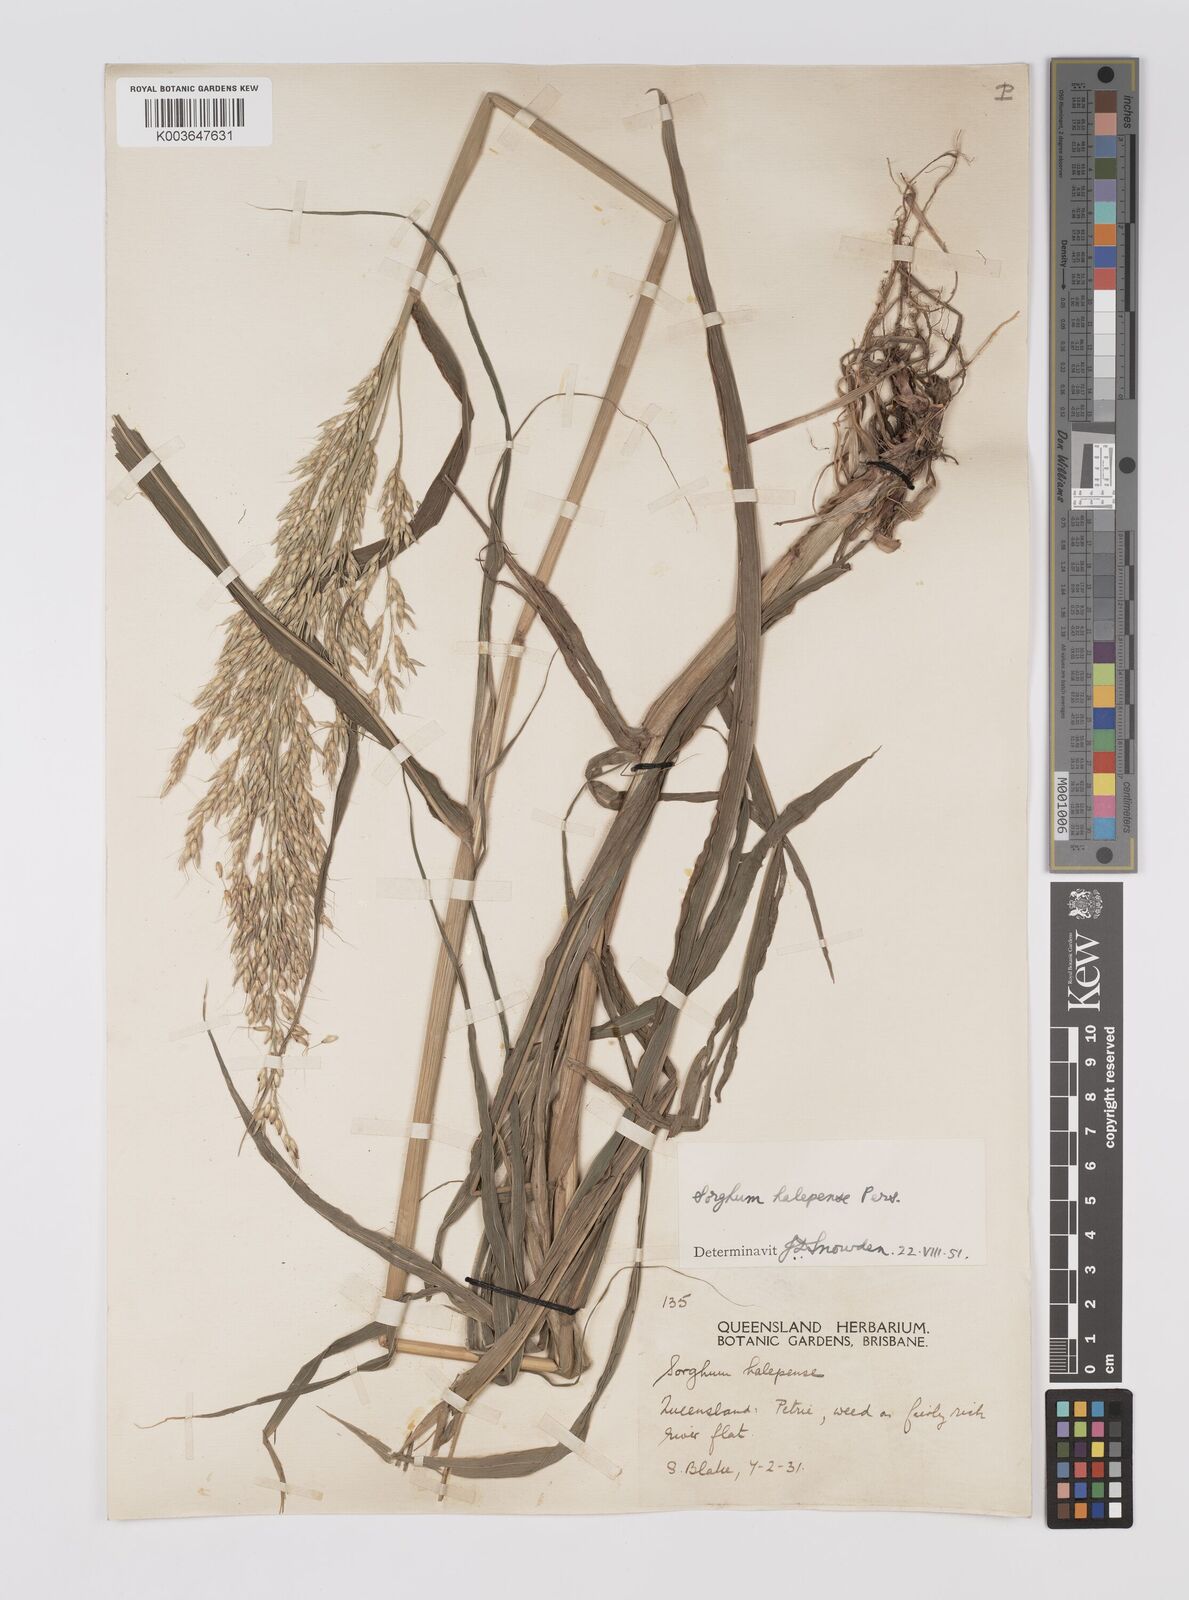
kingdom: Plantae
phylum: Tracheophyta
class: Liliopsida
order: Poales
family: Poaceae
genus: Sorghum
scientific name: Sorghum halepense
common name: Johnson-grass
